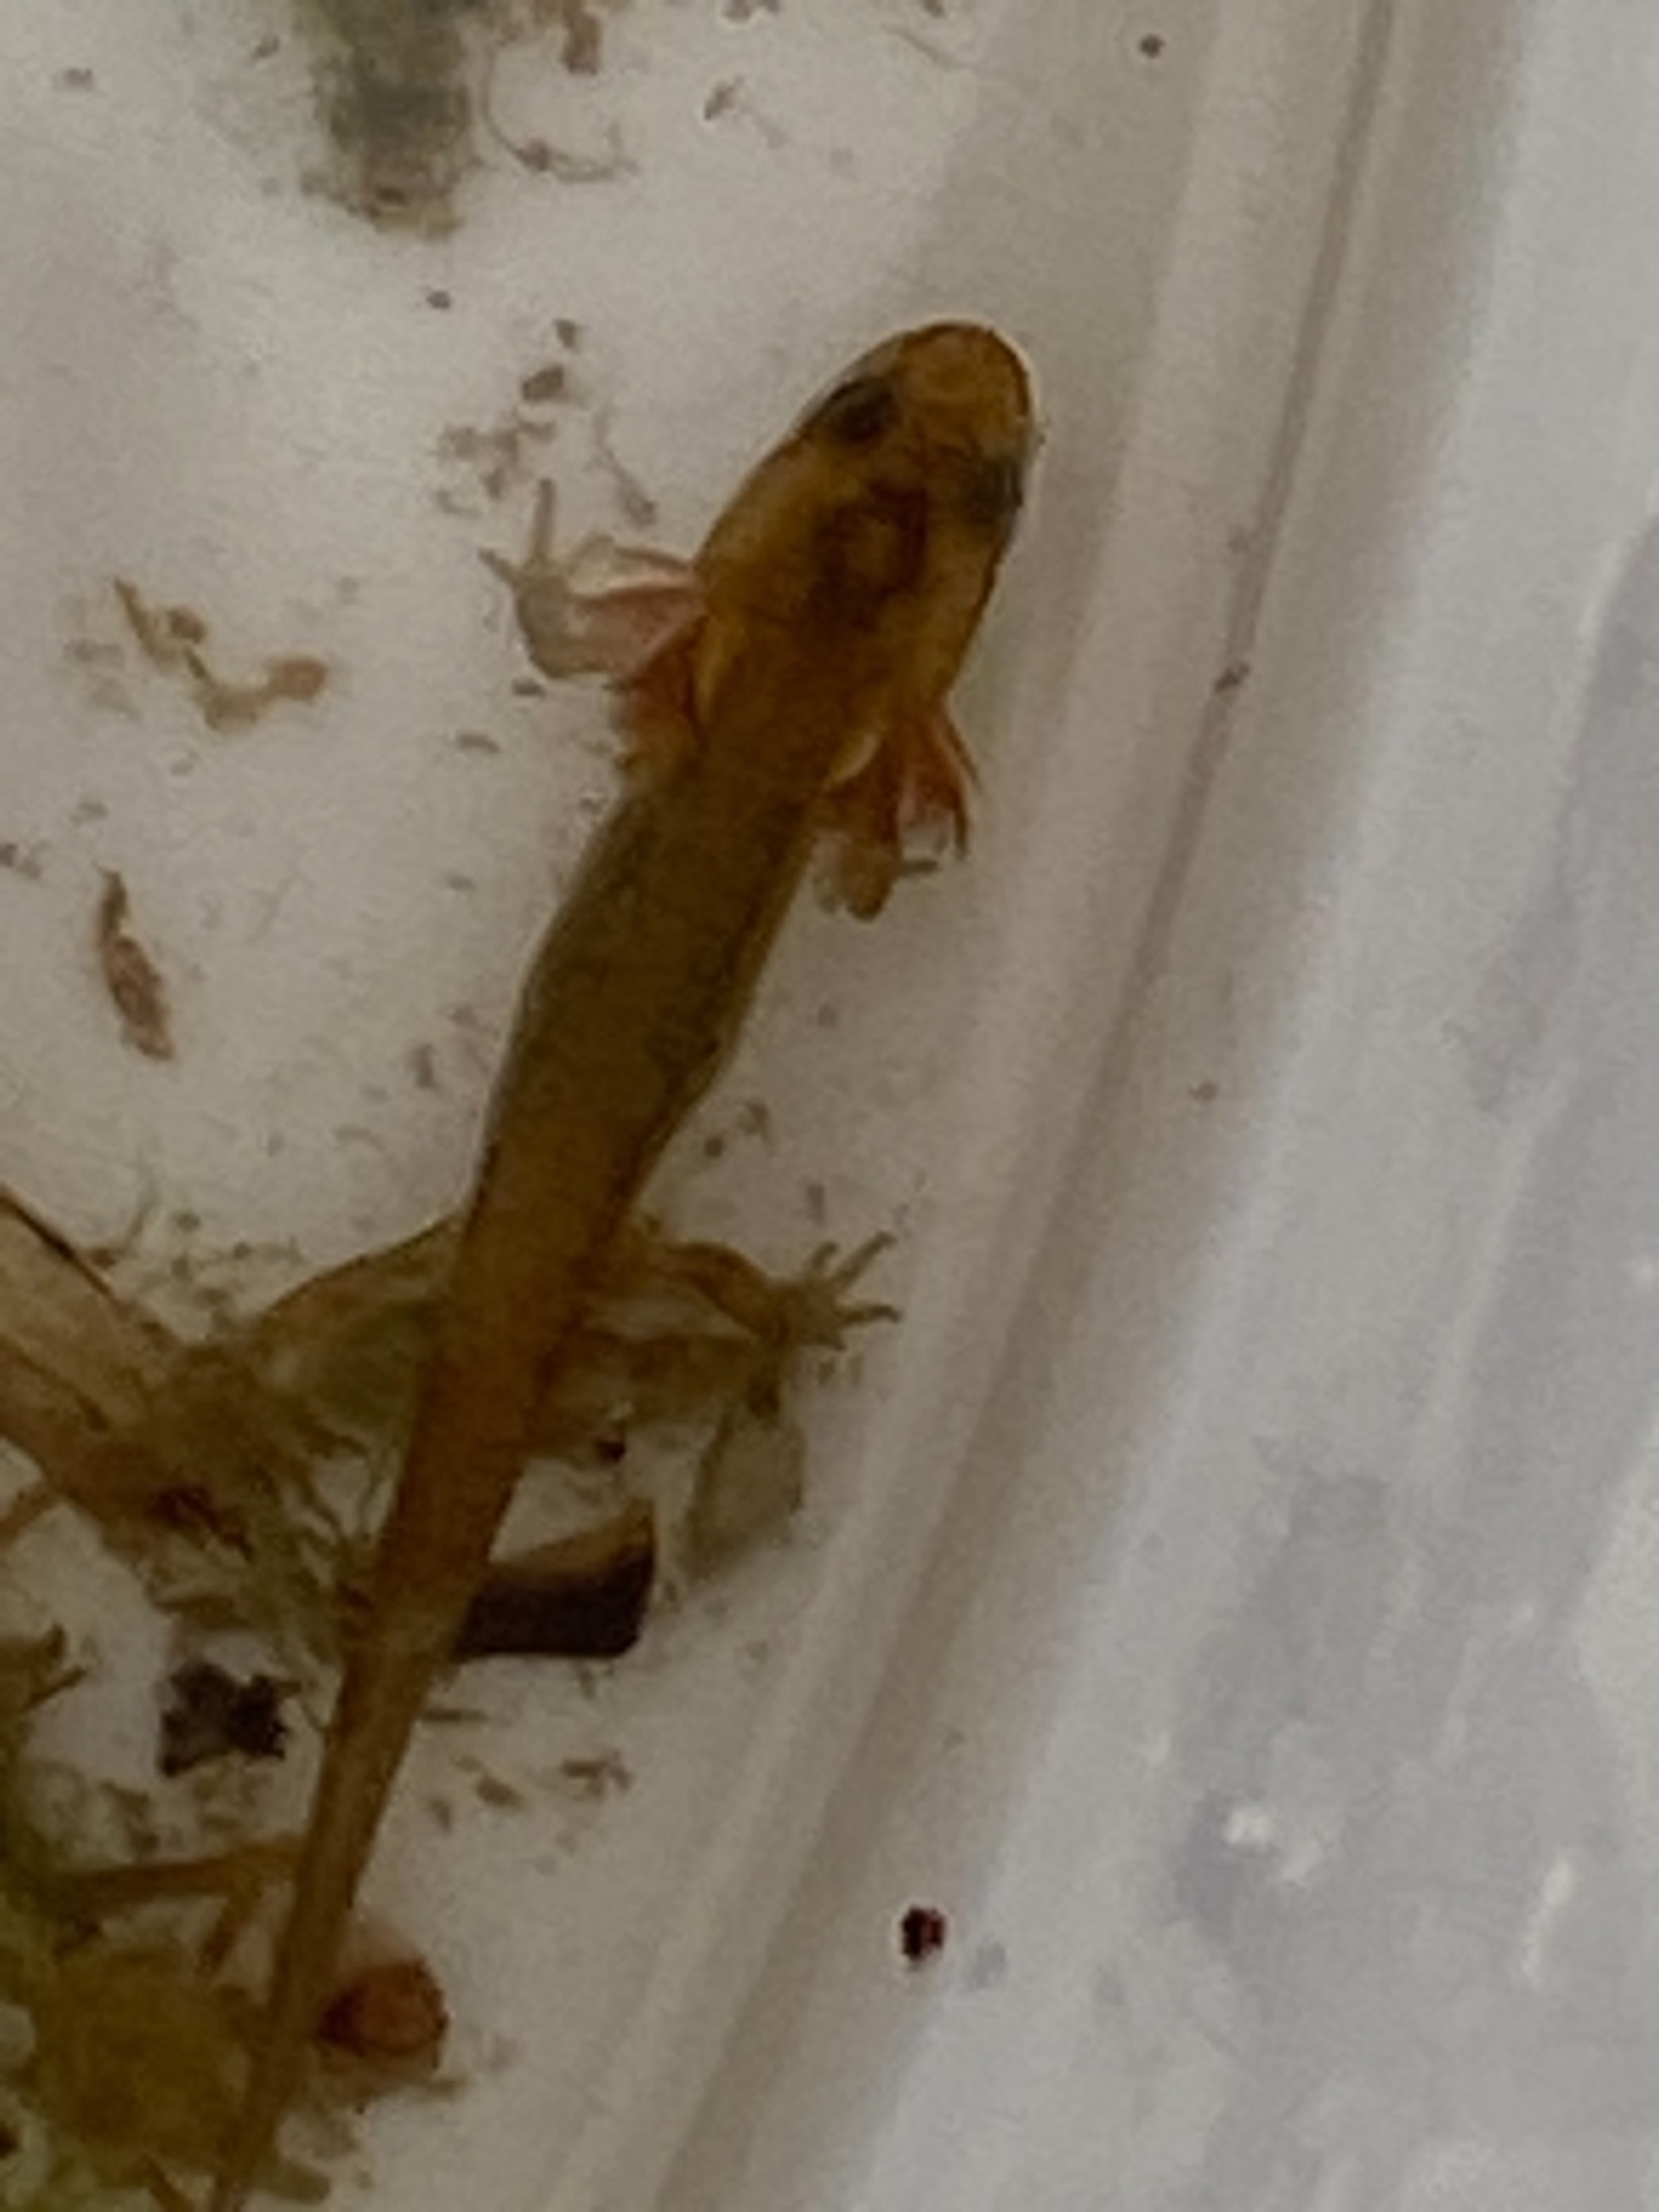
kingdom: Animalia
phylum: Chordata
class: Amphibia
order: Caudata
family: Salamandridae
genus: Lissotriton
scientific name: Lissotriton vulgaris
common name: Lille vandsalamander
